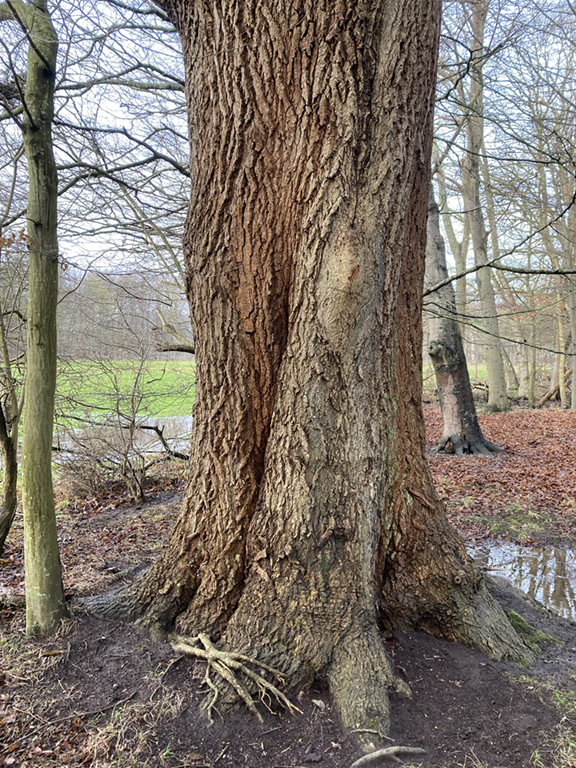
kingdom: Fungi
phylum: Basidiomycota
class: Agaricomycetes
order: Polyporales
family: Polyporaceae
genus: Coriolopsis
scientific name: Coriolopsis gallica
